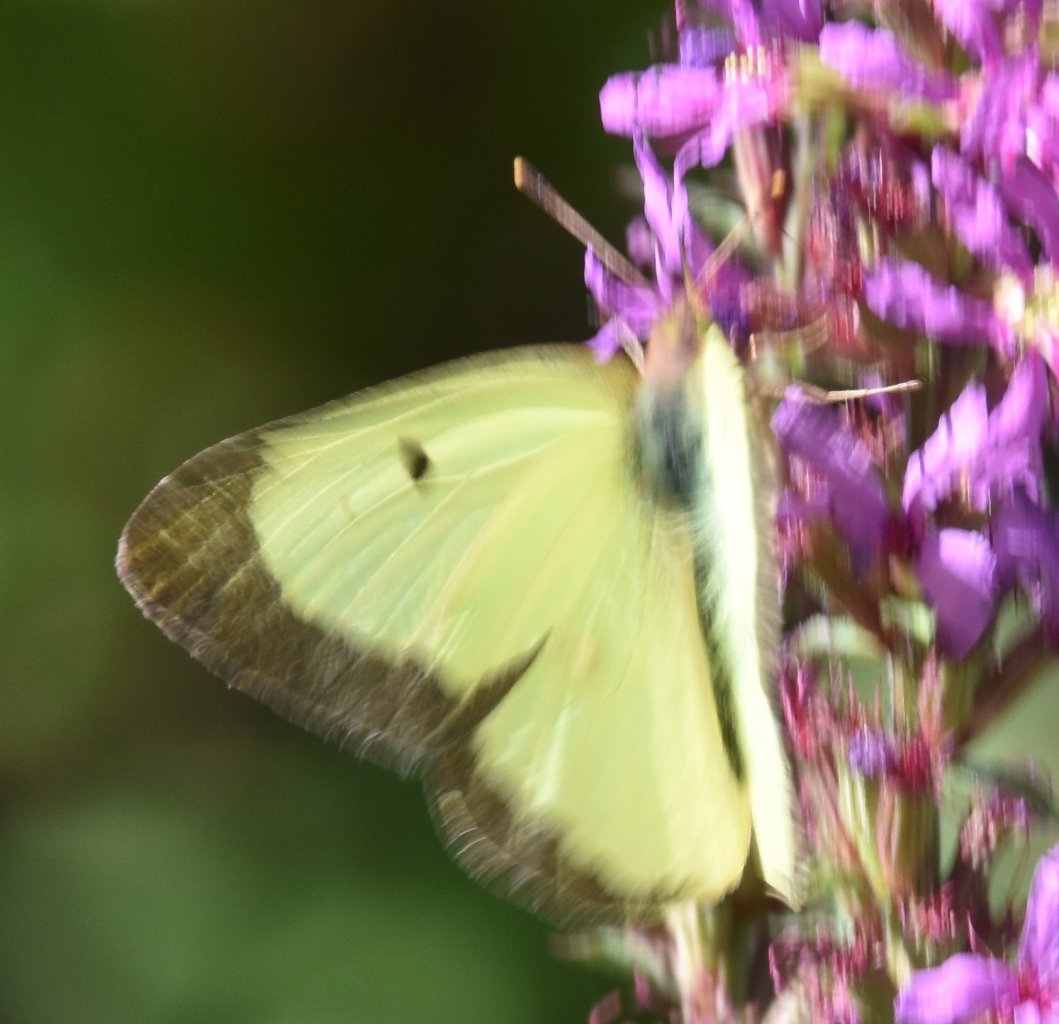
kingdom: Animalia
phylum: Arthropoda
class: Insecta
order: Lepidoptera
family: Pieridae
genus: Colias
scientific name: Colias philodice
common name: Clouded Sulphur
